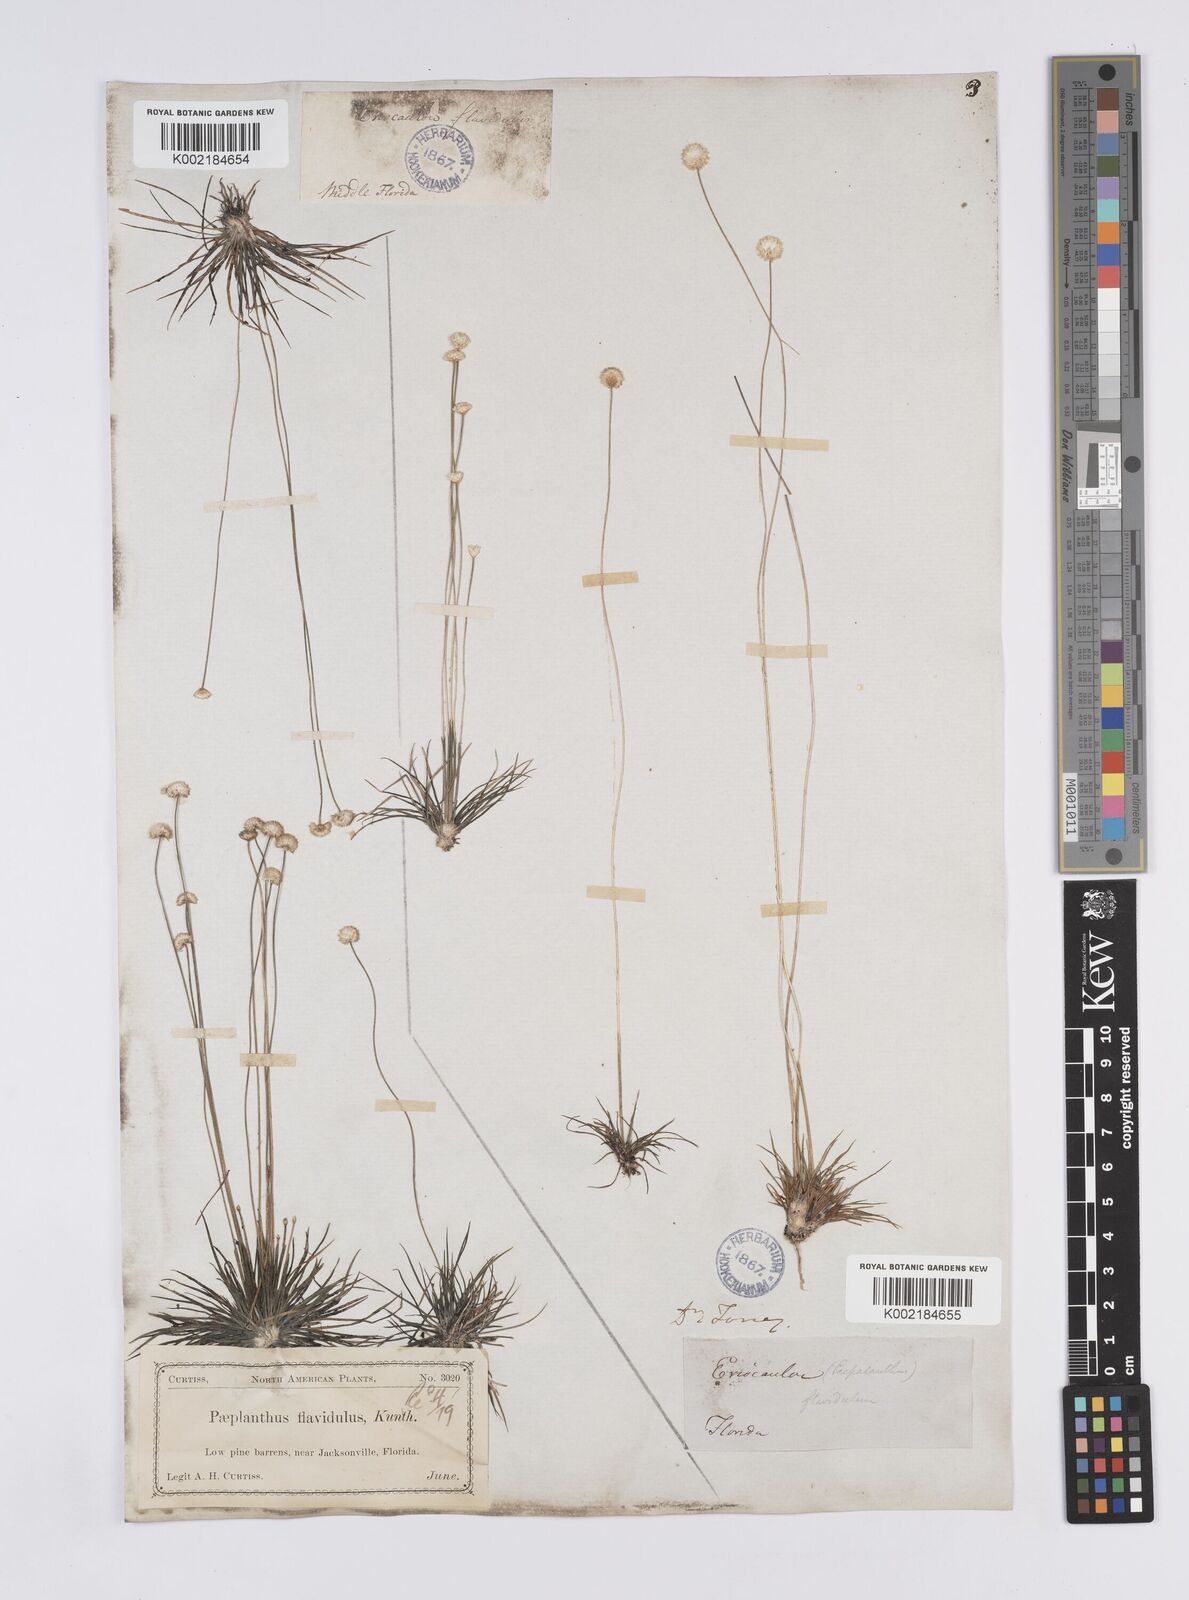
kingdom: Plantae
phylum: Tracheophyta
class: Liliopsida
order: Poales
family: Eriocaulaceae
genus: Syngonanthus
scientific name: Syngonanthus flavidulus
